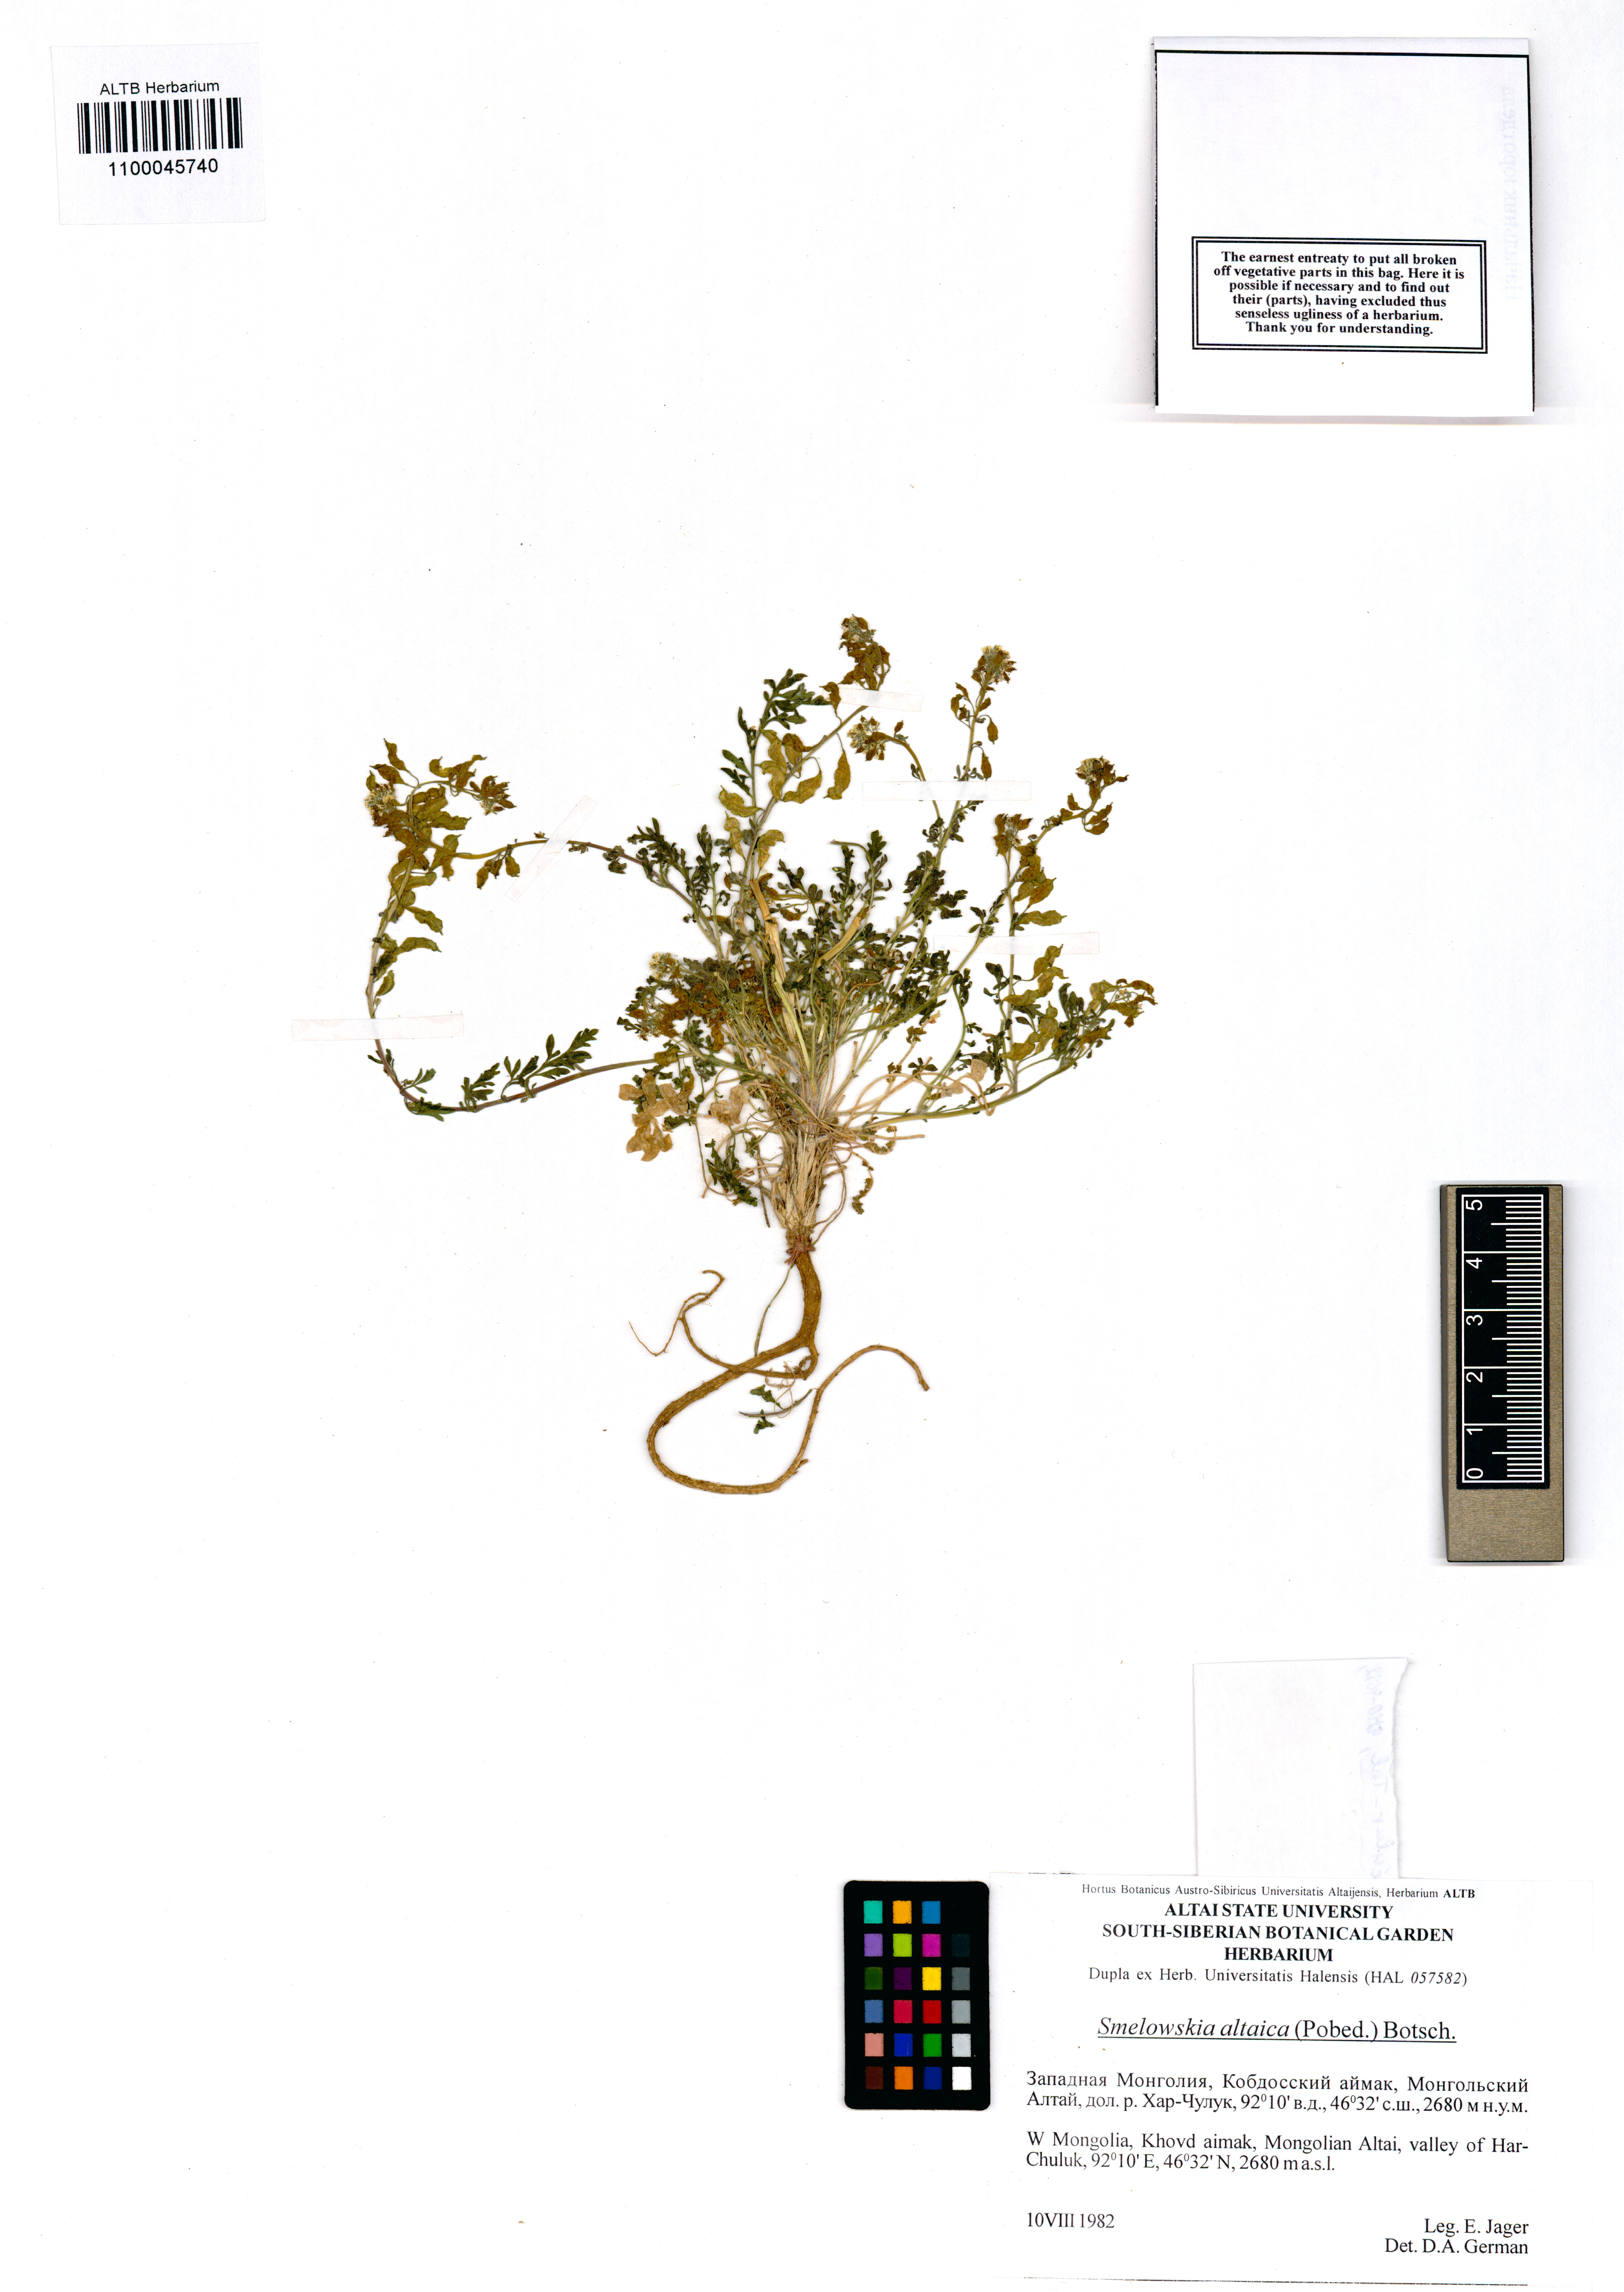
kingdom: Plantae
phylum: Tracheophyta
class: Magnoliopsida
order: Brassicales
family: Brassicaceae
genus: Smelowskia
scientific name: Smelowskia altaica
